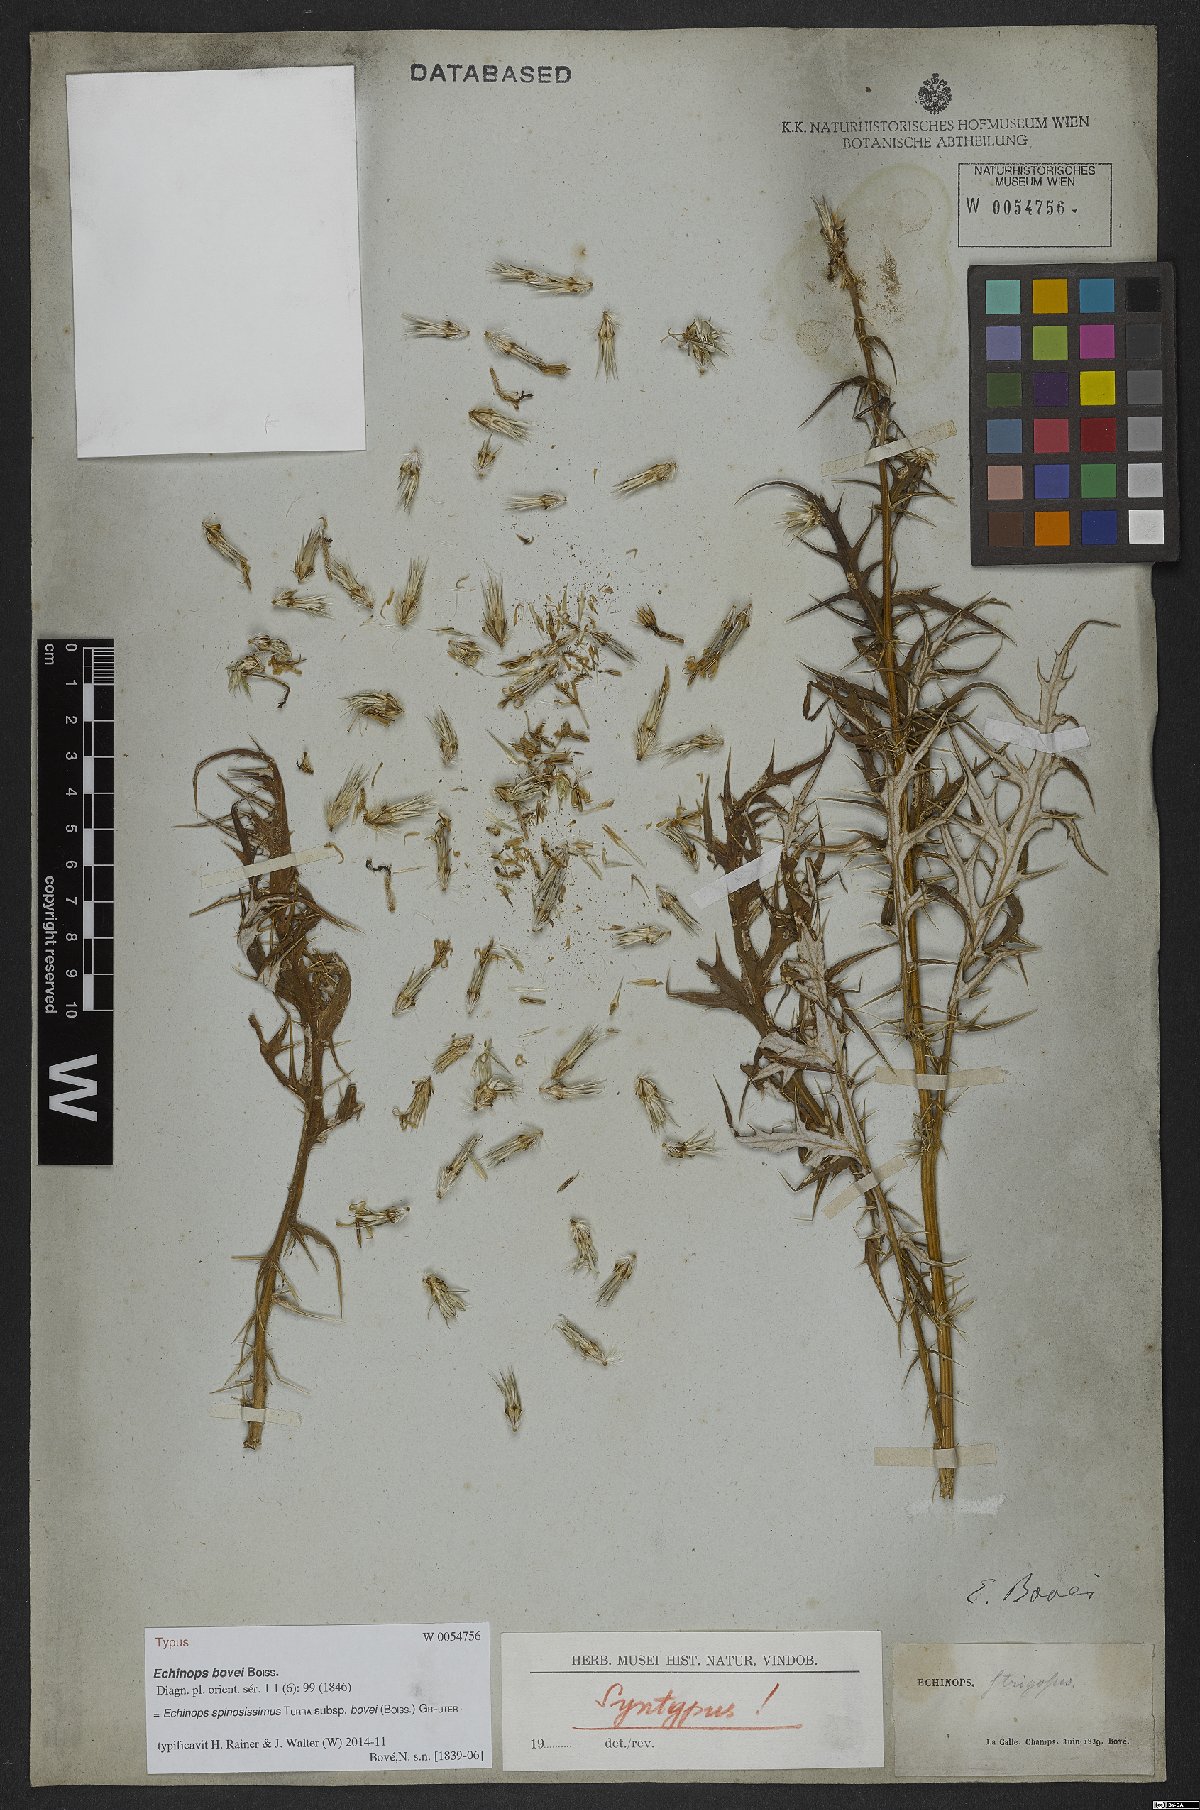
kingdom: Plantae
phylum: Tracheophyta
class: Magnoliopsida
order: Asterales
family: Asteraceae
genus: Echinops
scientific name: Echinops bovei
